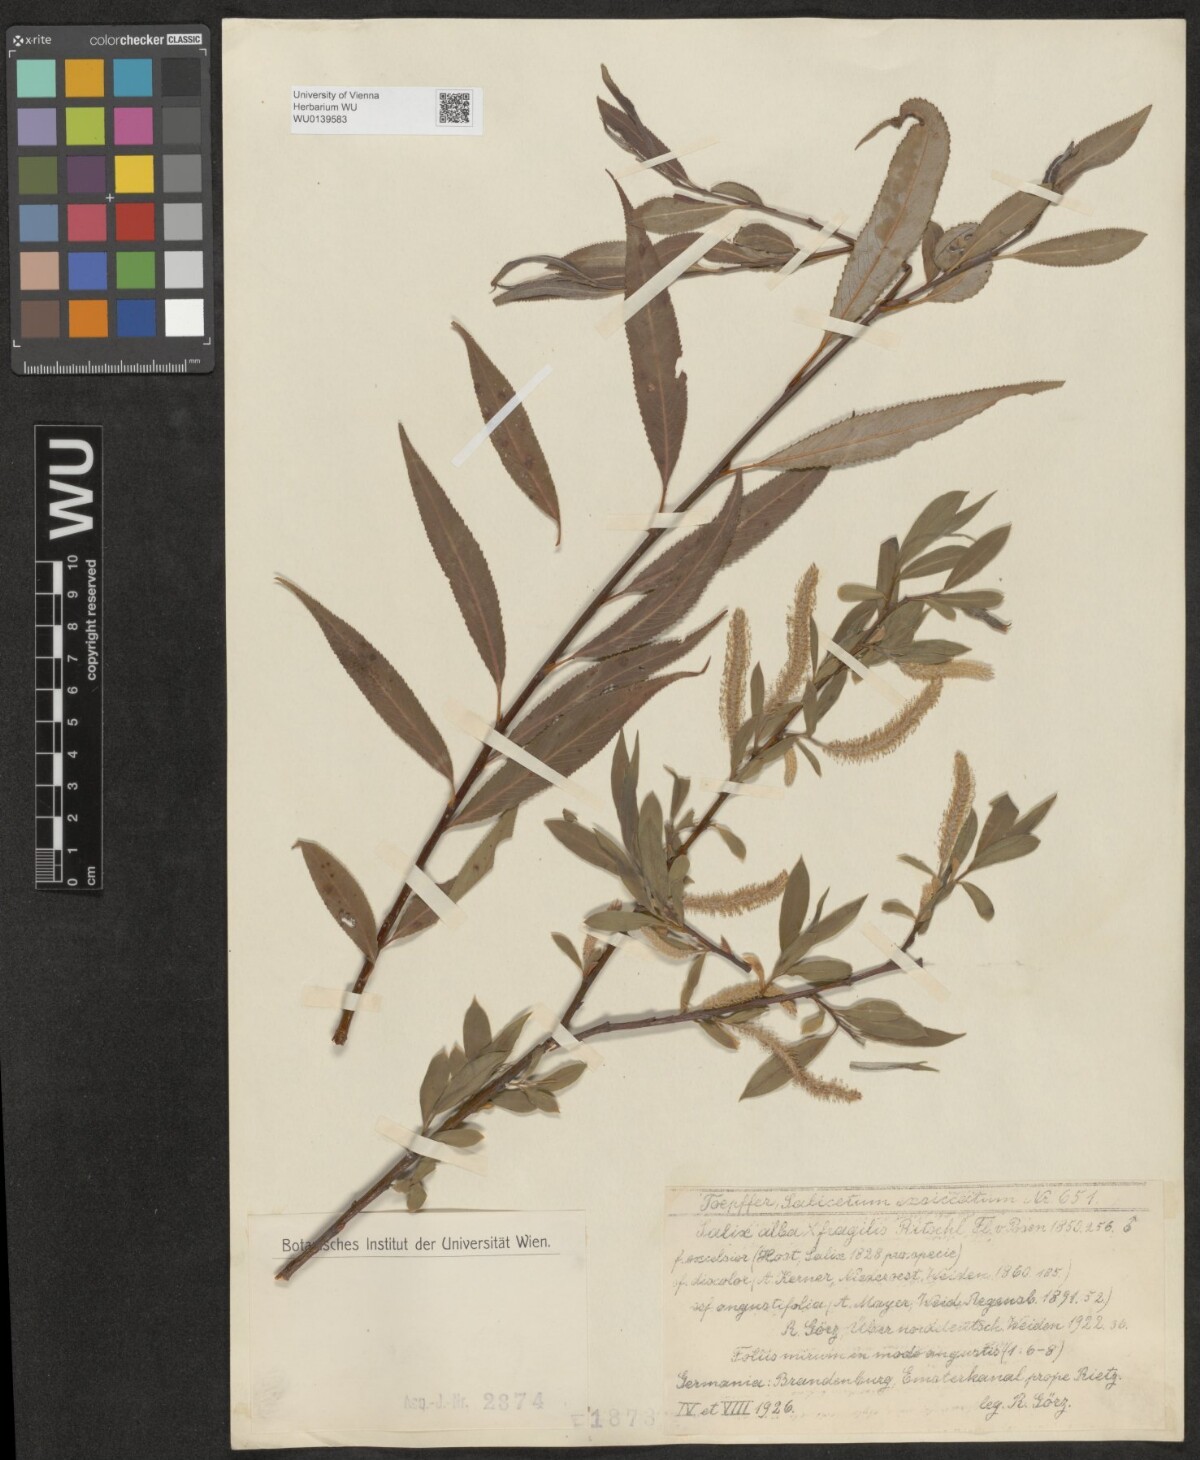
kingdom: Plantae
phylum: Tracheophyta
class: Magnoliopsida
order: Malpighiales
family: Salicaceae
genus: Salix
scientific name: Salix rubens
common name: Hybrid crack willow
